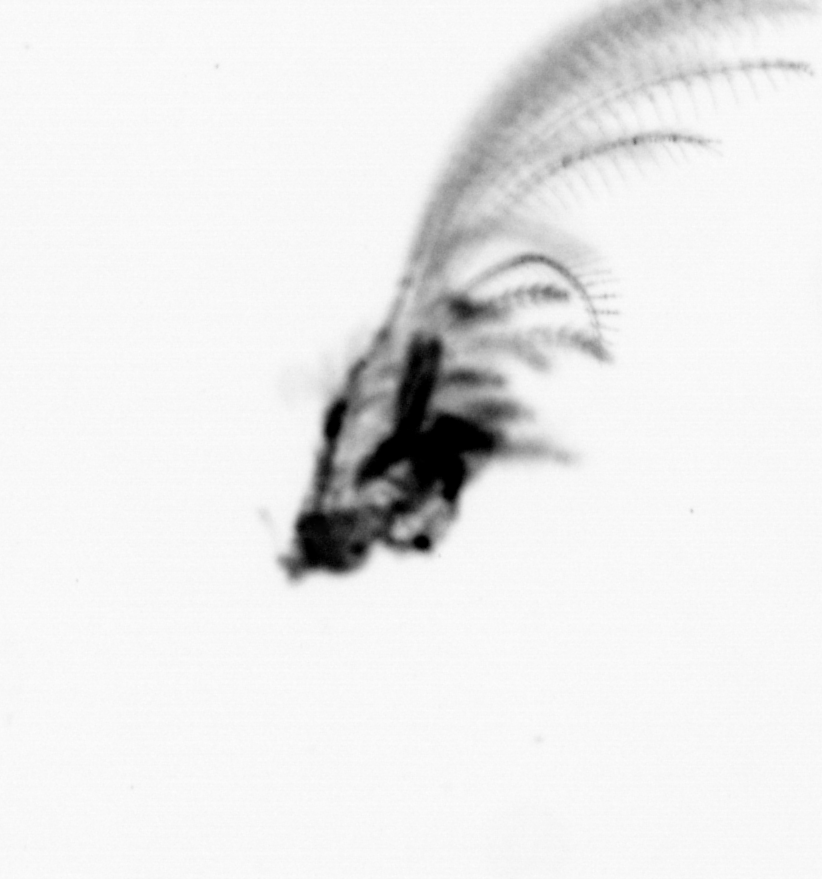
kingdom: Animalia
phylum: Arthropoda
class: Maxillopoda
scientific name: Maxillopoda
